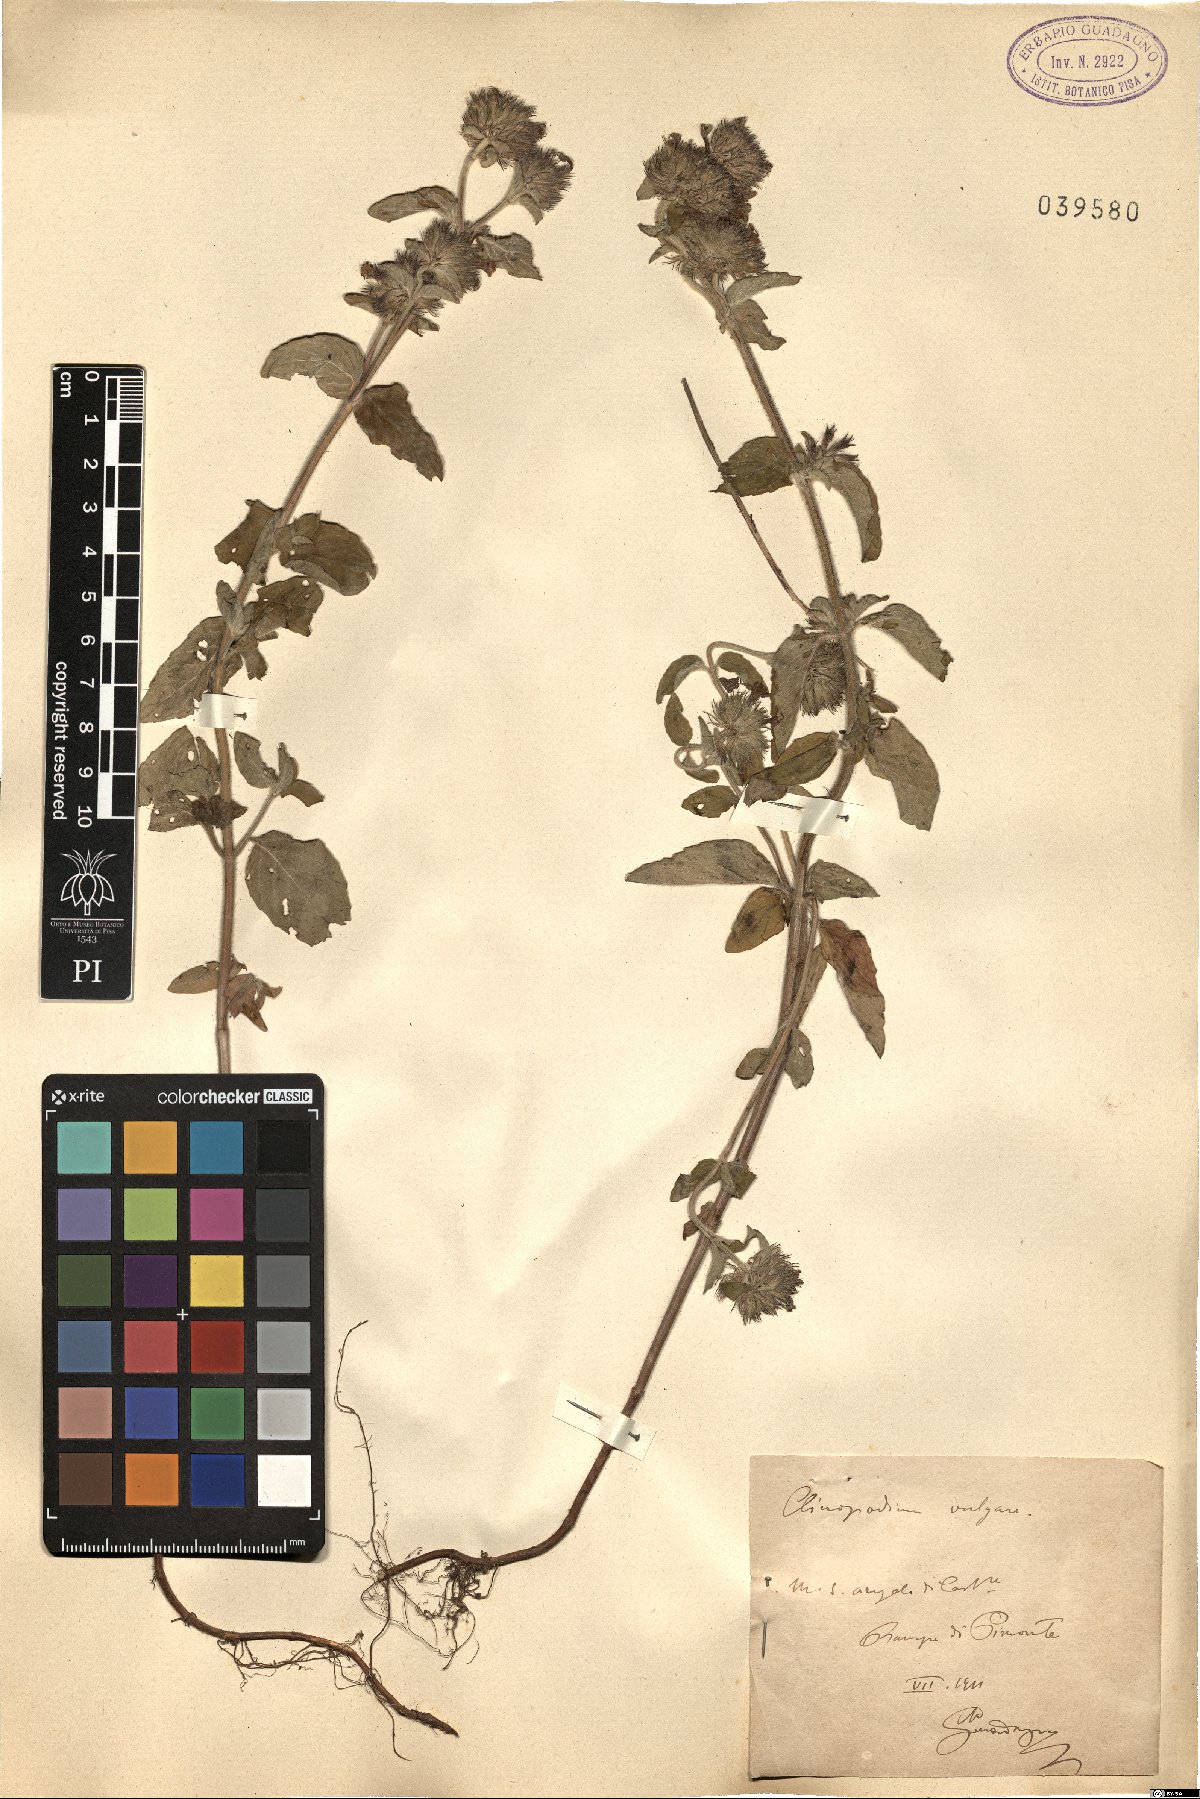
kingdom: Plantae
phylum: Tracheophyta
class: Magnoliopsida
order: Lamiales
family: Lamiaceae
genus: Clinopodium
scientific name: Clinopodium vulgare
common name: Wild basil
